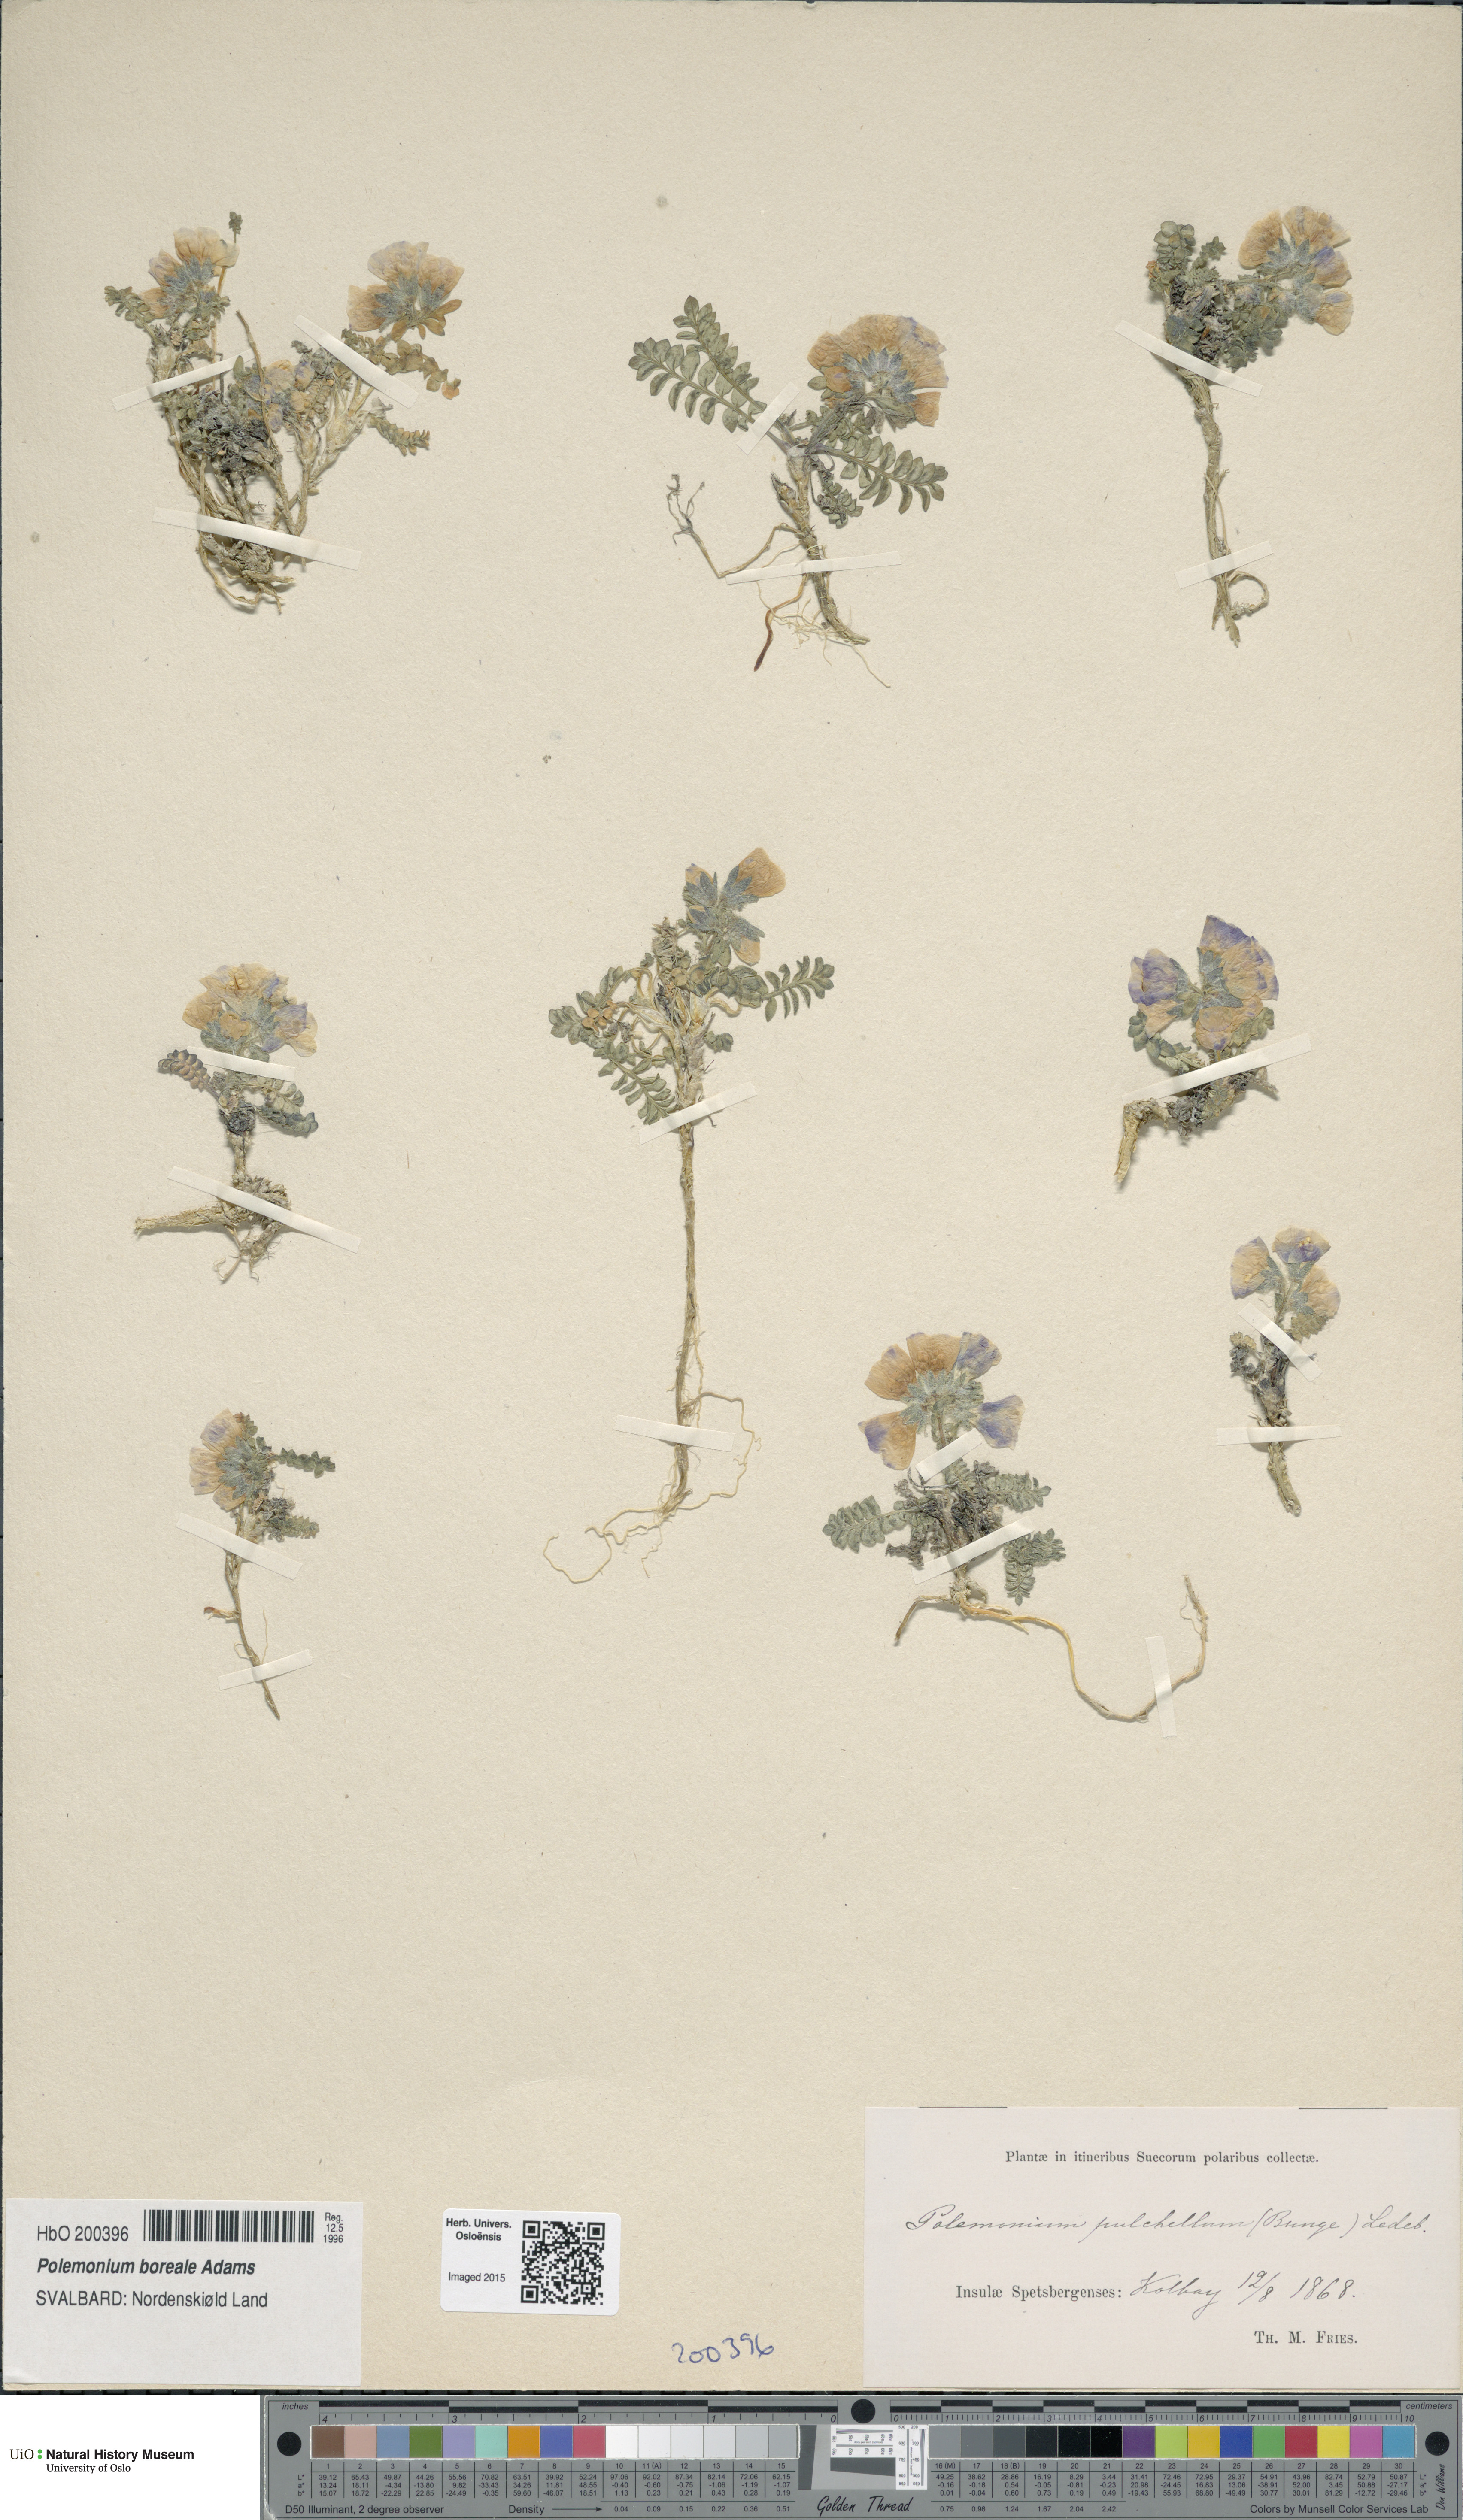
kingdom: Plantae
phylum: Tracheophyta
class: Magnoliopsida
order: Ericales
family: Polemoniaceae
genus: Polemonium
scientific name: Polemonium boreale
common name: Boreal jacob's-ladder
